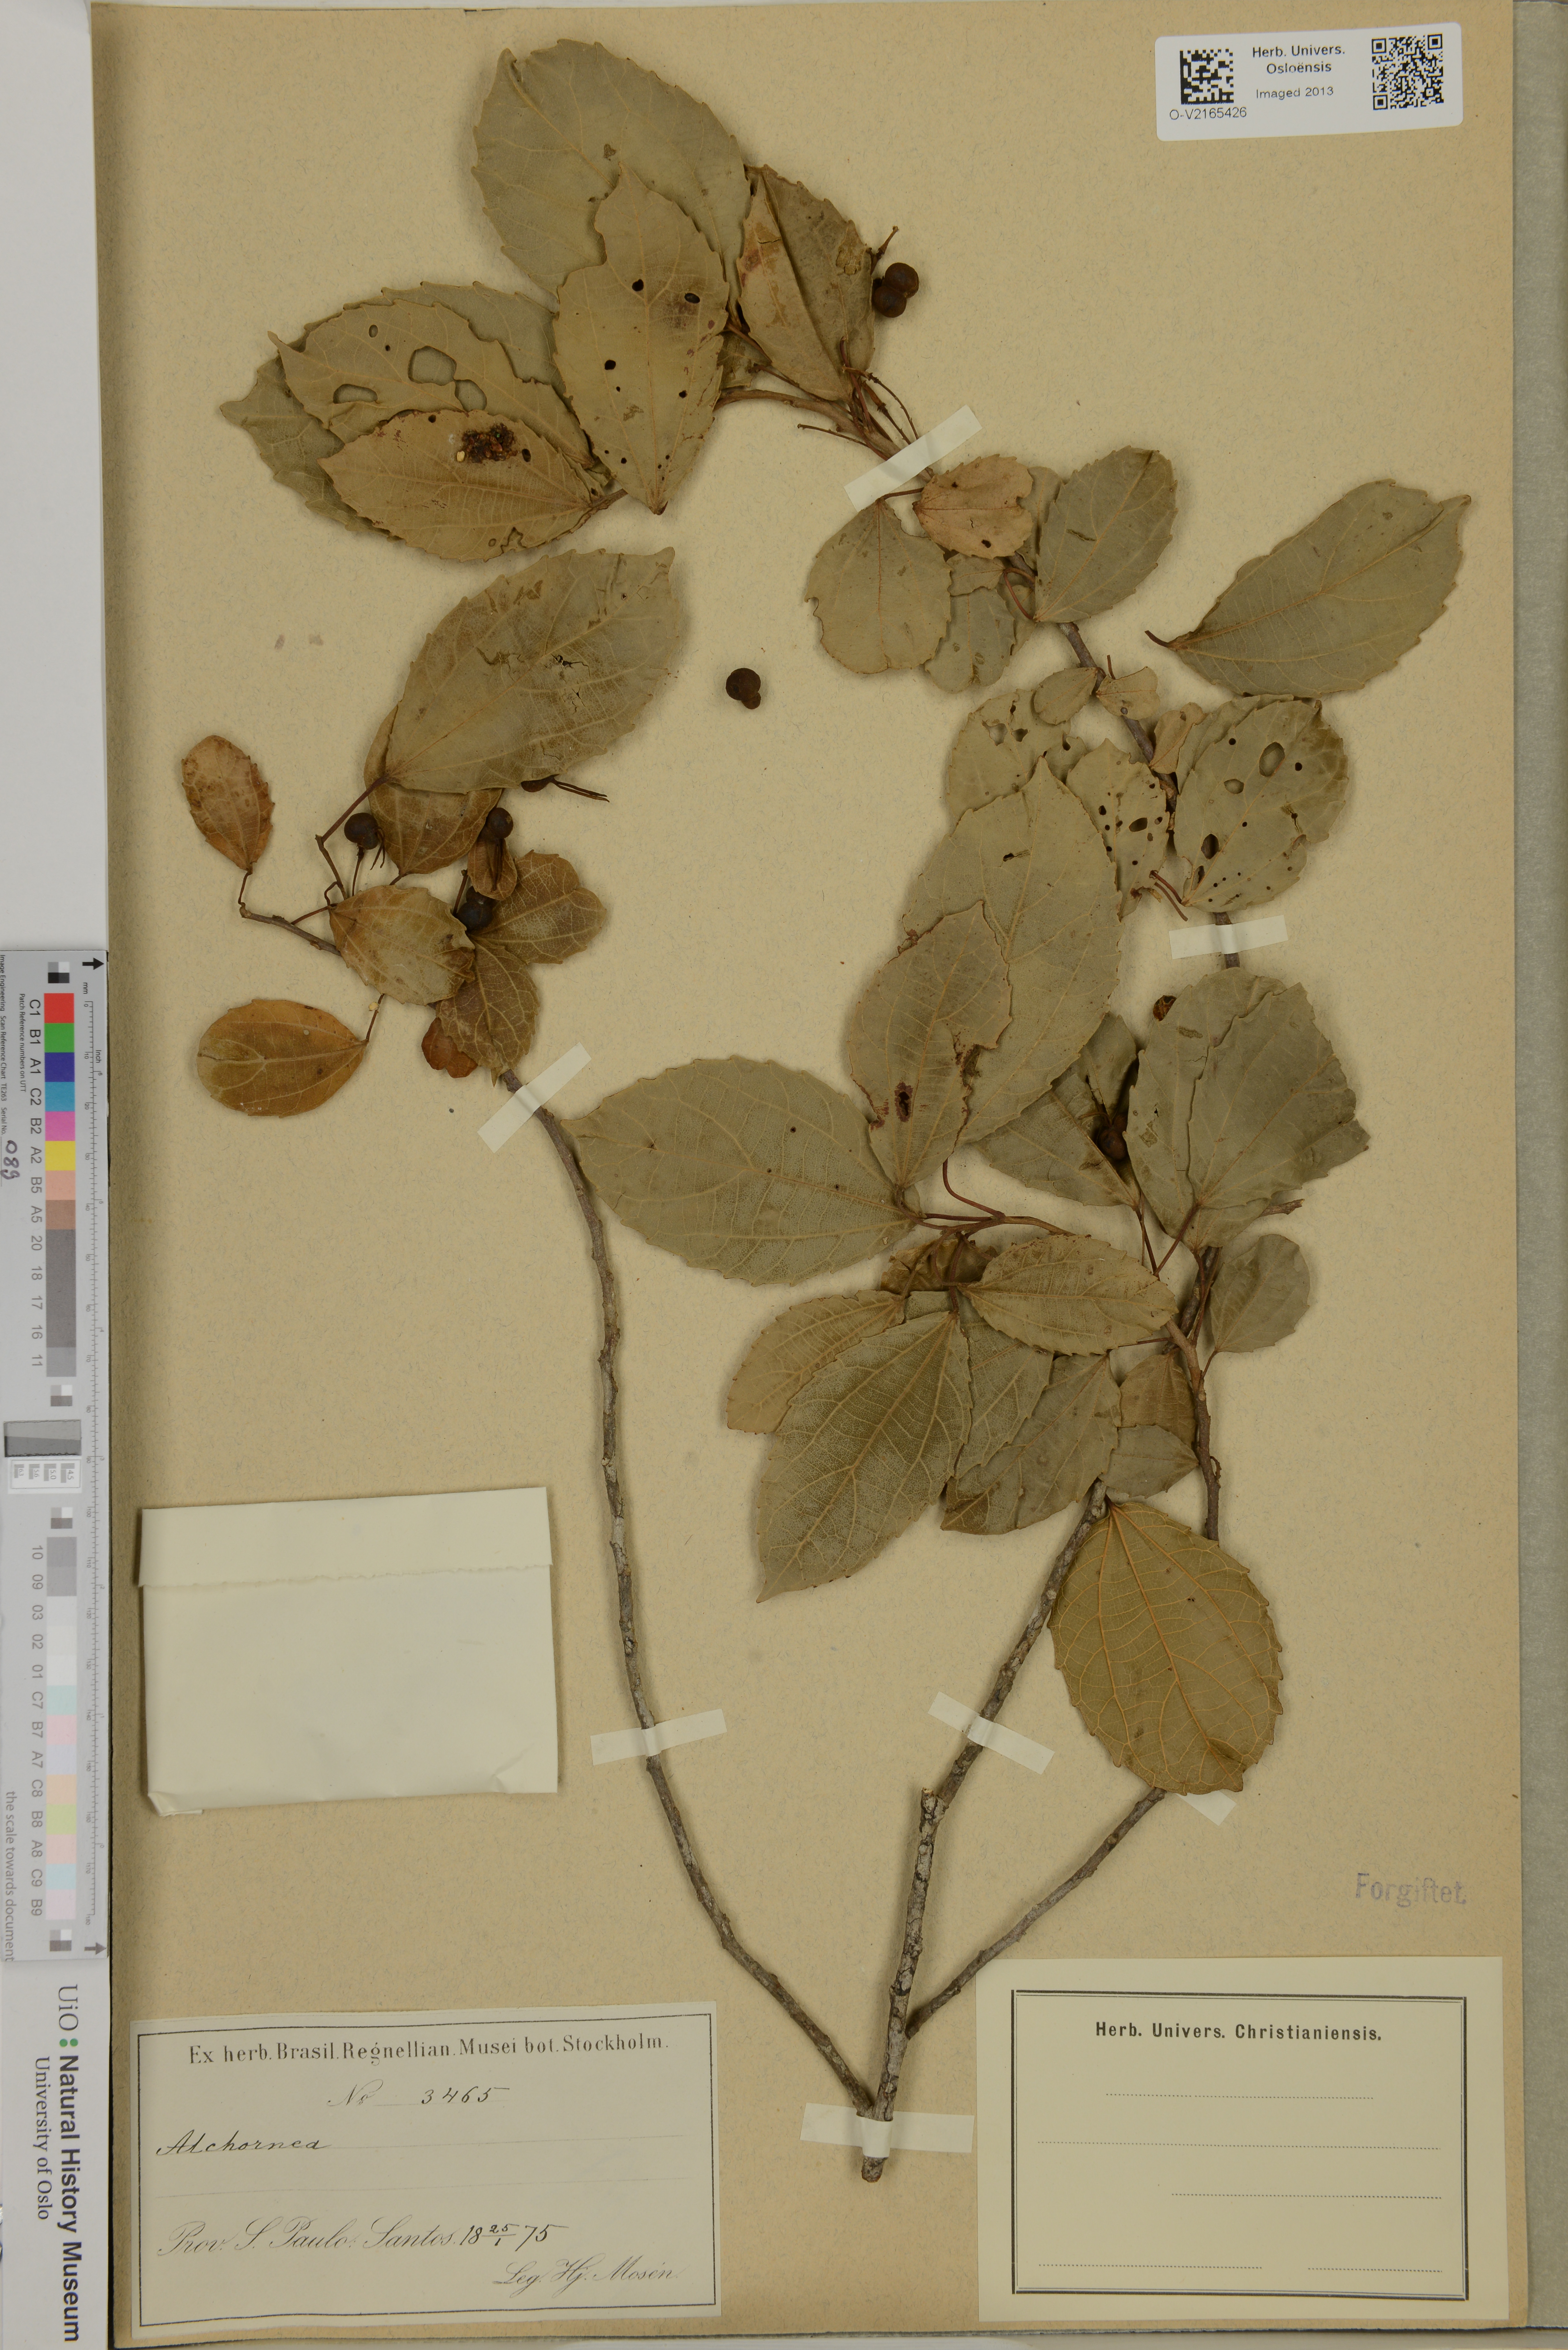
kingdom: Plantae
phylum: Tracheophyta
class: Magnoliopsida
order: Malpighiales
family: Euphorbiaceae
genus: Alchornea
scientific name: Alchornea
